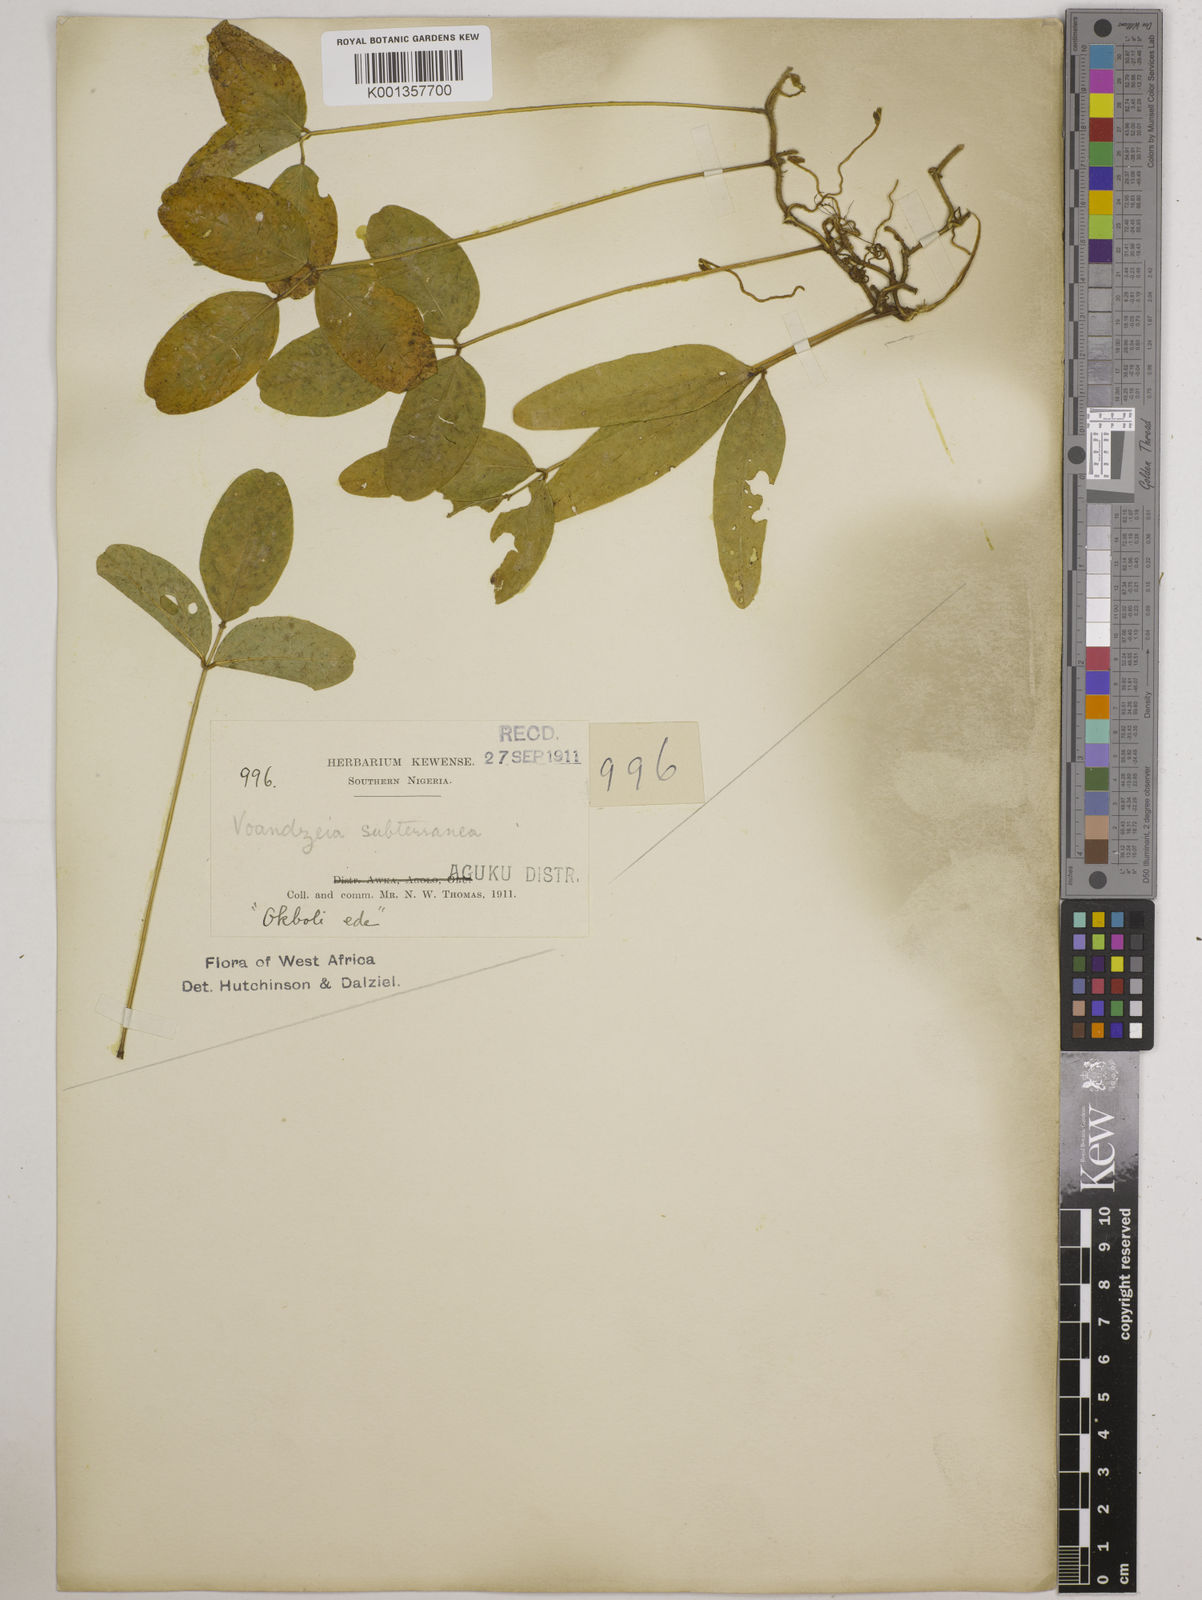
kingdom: Plantae
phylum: Tracheophyta
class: Magnoliopsida
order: Fabales
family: Fabaceae
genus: Vigna
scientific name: Vigna subterranea
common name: Bambara groundnut
